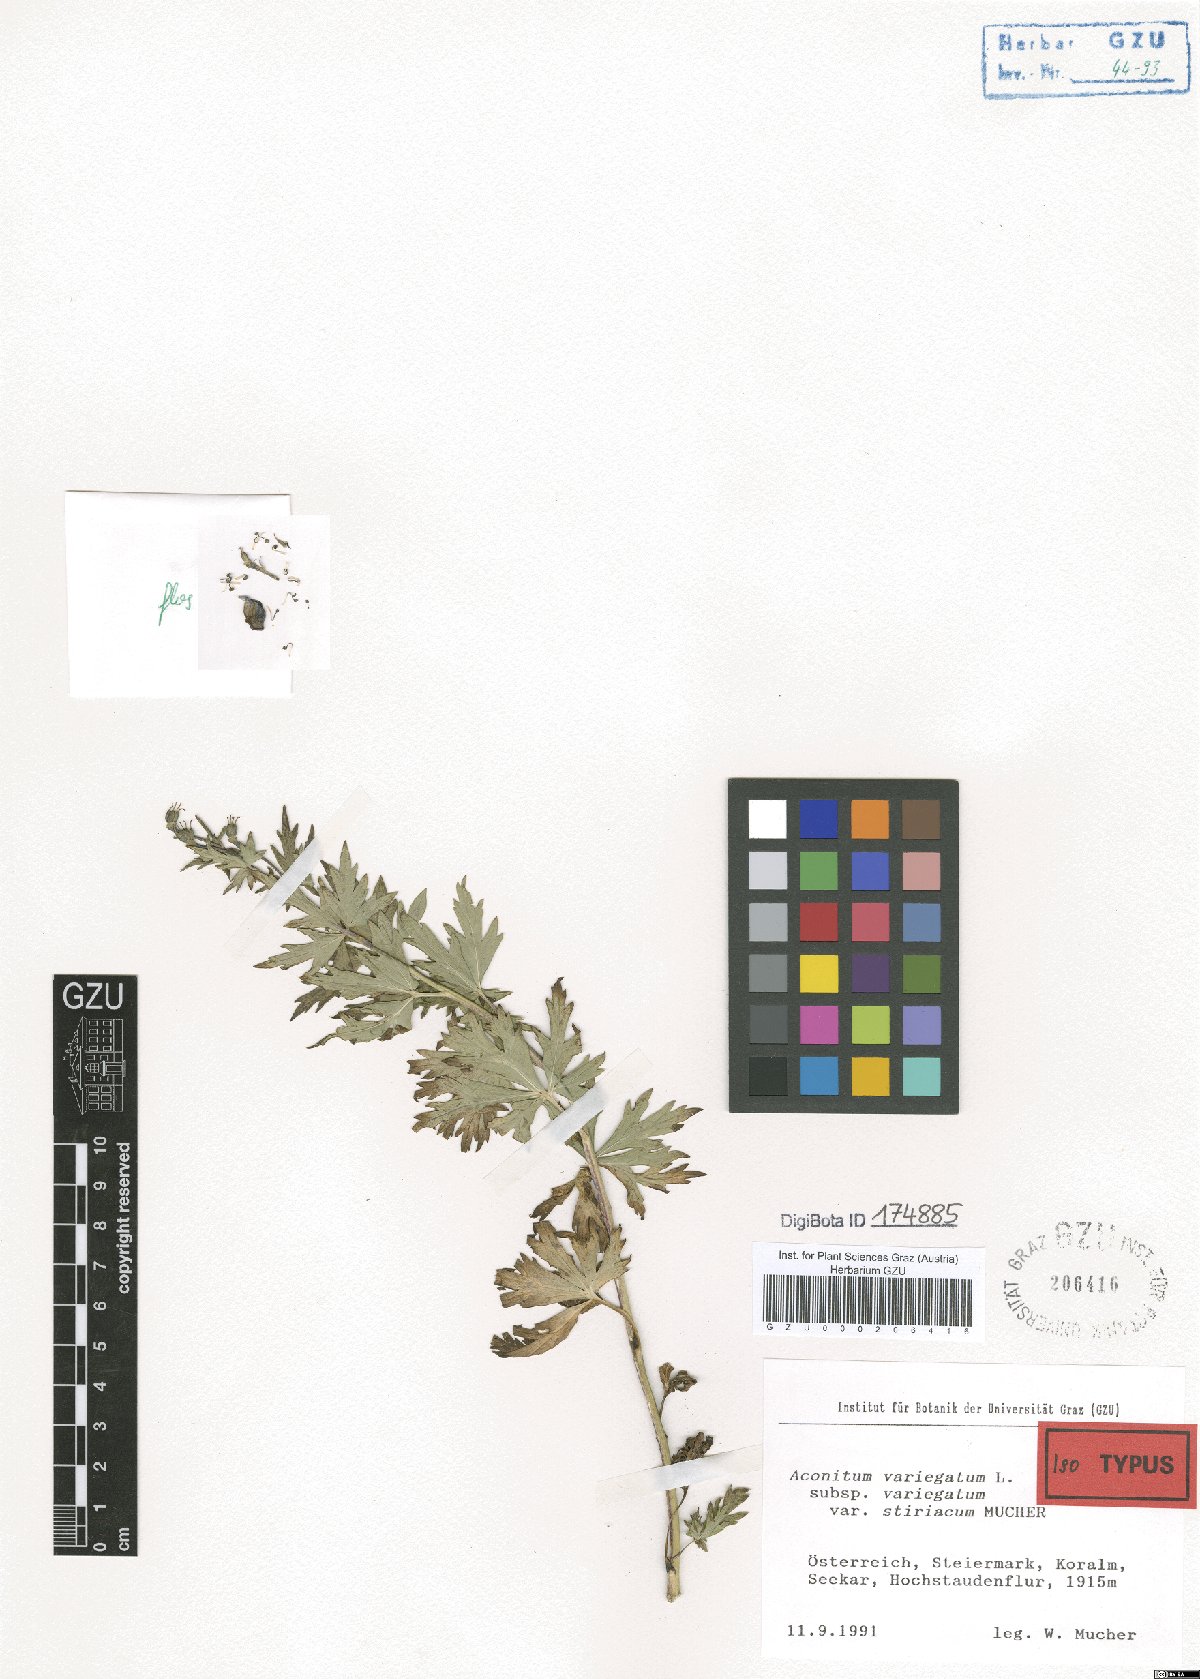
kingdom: Plantae
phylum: Tracheophyta
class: Magnoliopsida
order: Ranunculales
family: Ranunculaceae
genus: Aconitum
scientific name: Aconitum variegatum
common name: Manchurian monkshood
